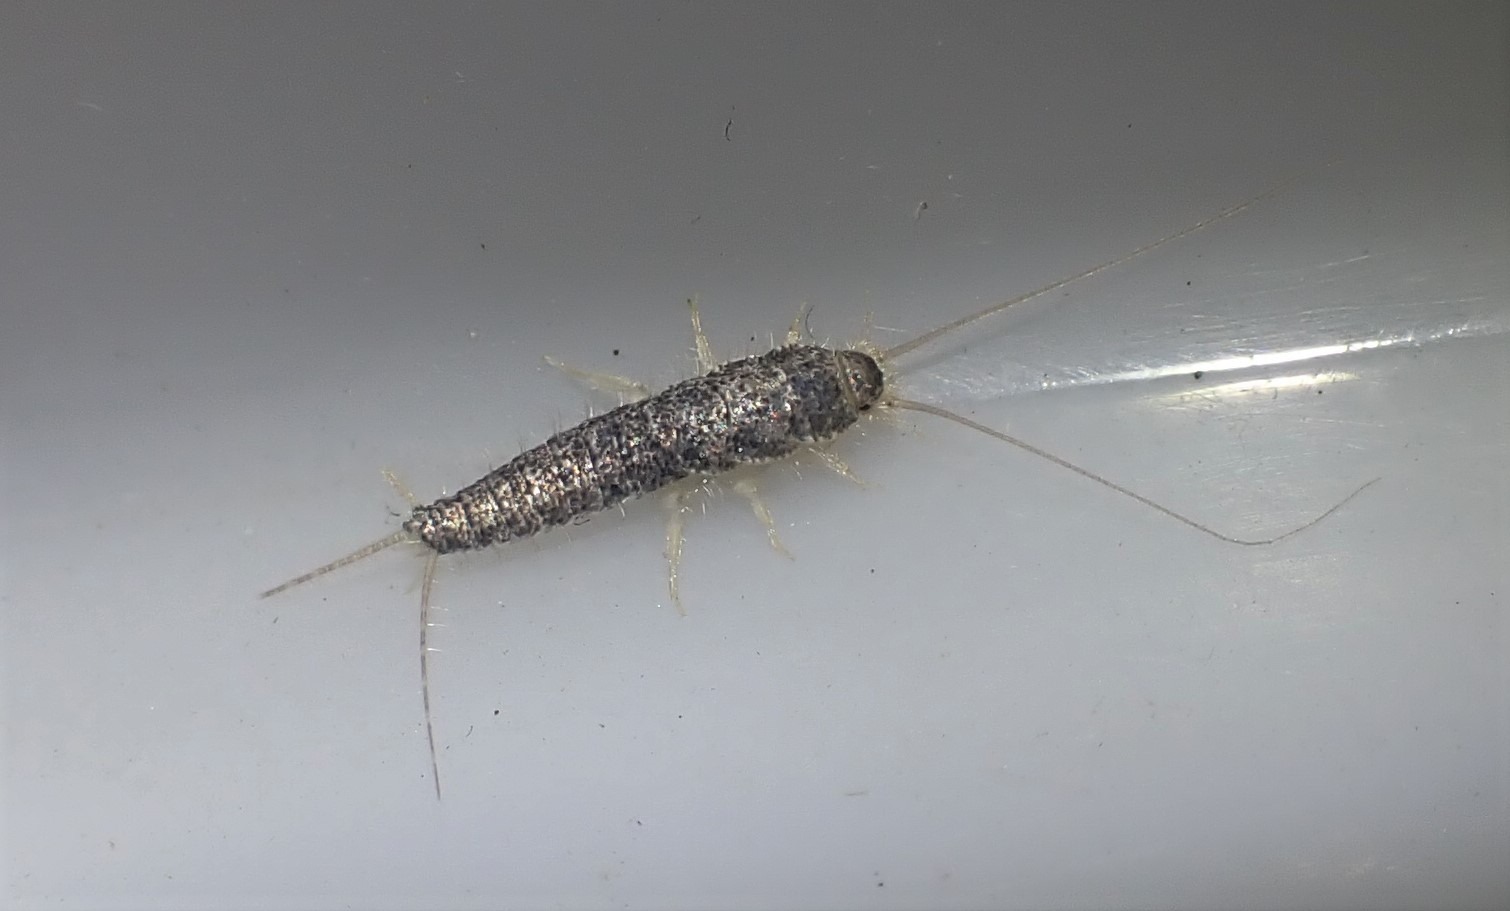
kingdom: Animalia
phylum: Arthropoda
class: Insecta
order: Zygentoma
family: Lepismatidae
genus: Ctenolepisma
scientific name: Ctenolepisma longicaudatum
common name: Skægget sølvkræ
